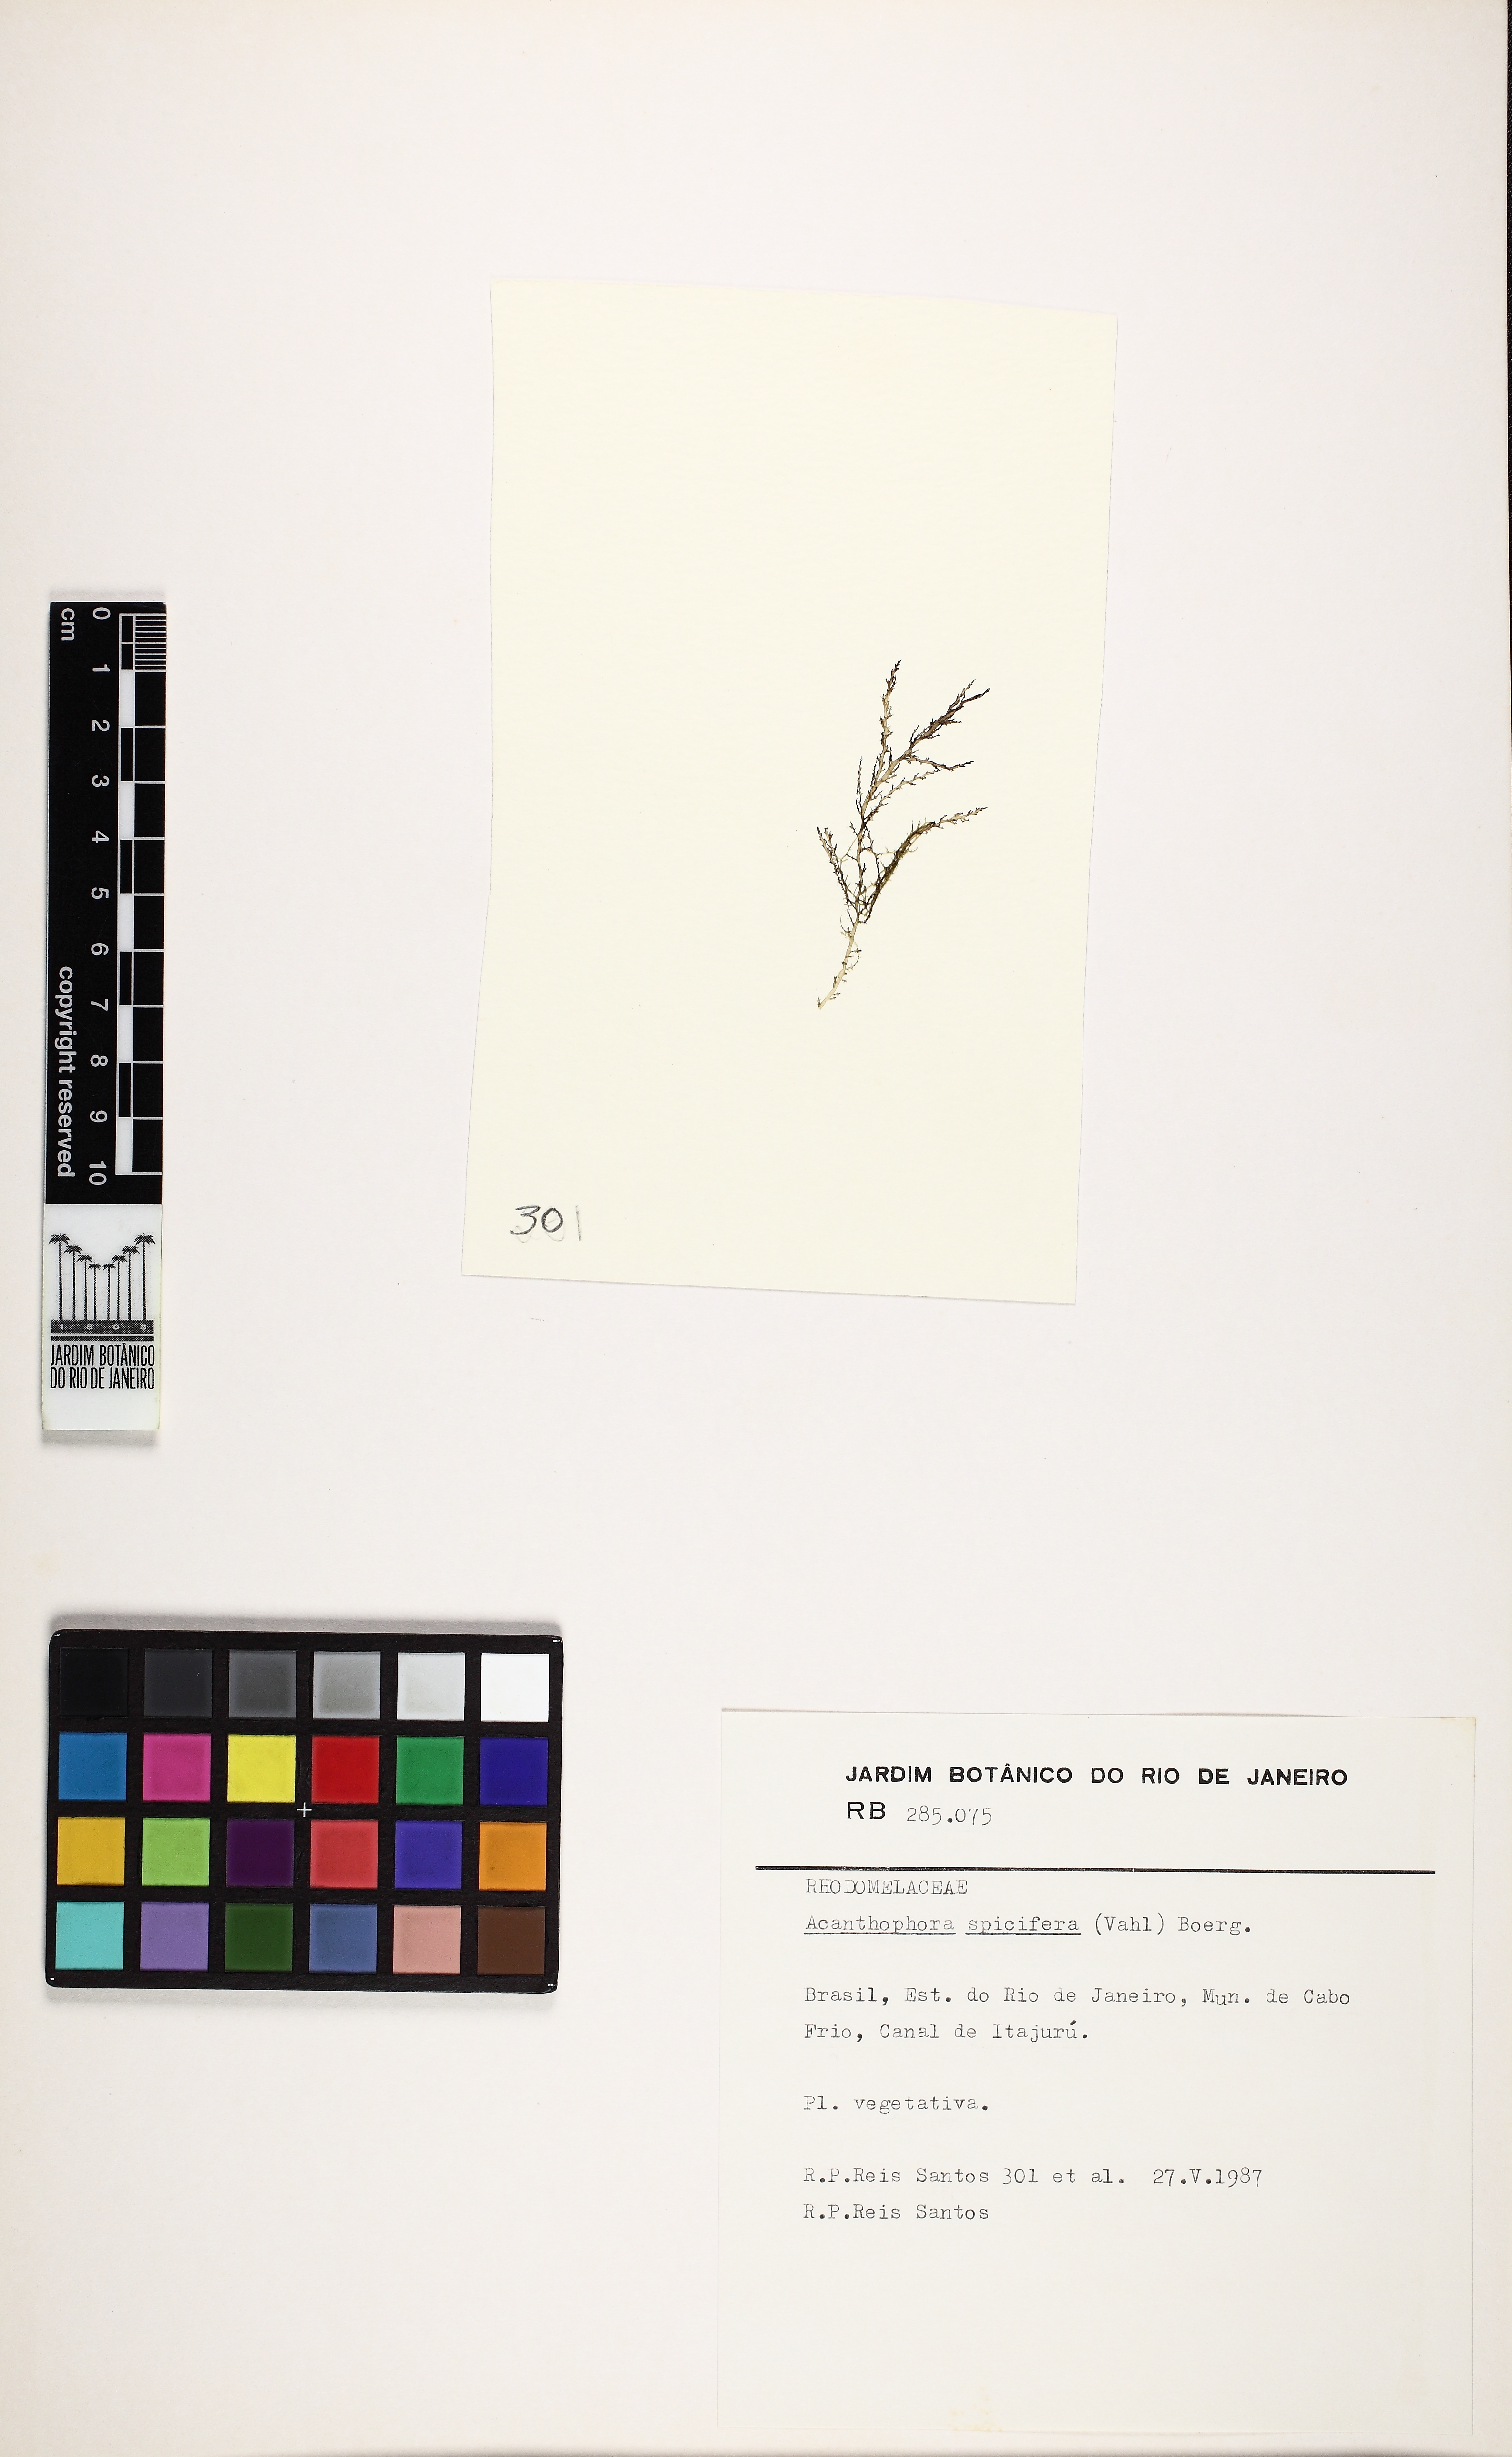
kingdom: Plantae
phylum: Rhodophyta
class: Florideophyceae
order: Ceramiales
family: Rhodomelaceae
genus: Acanthophora
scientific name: Acanthophora spicifera
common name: Red algae
